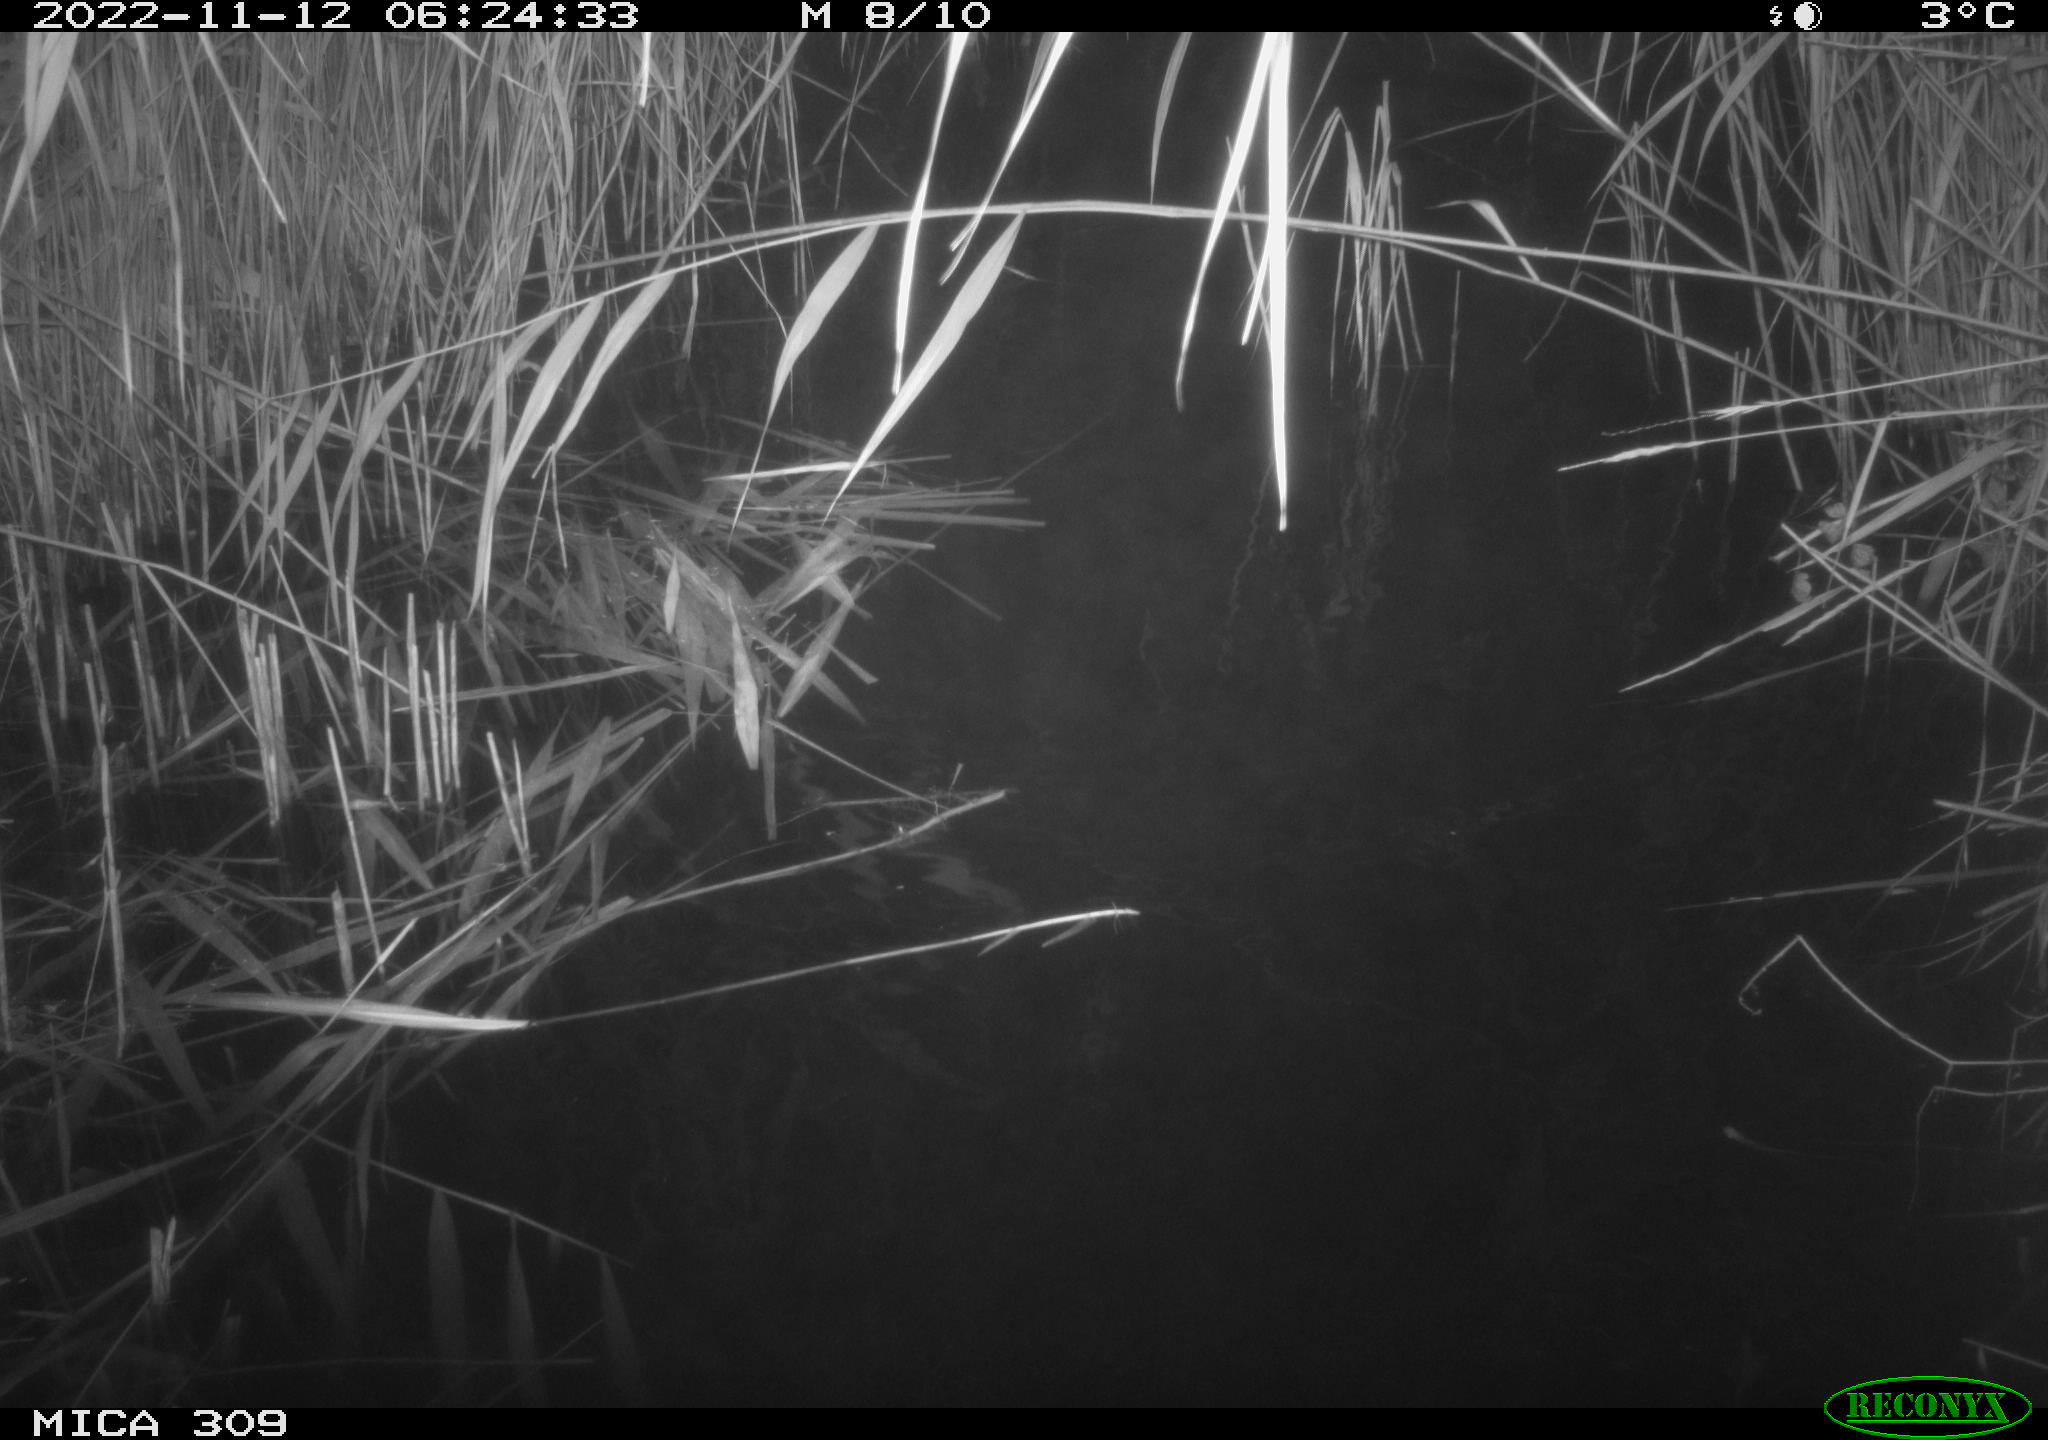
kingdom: Animalia
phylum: Chordata
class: Mammalia
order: Rodentia
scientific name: Rodentia
